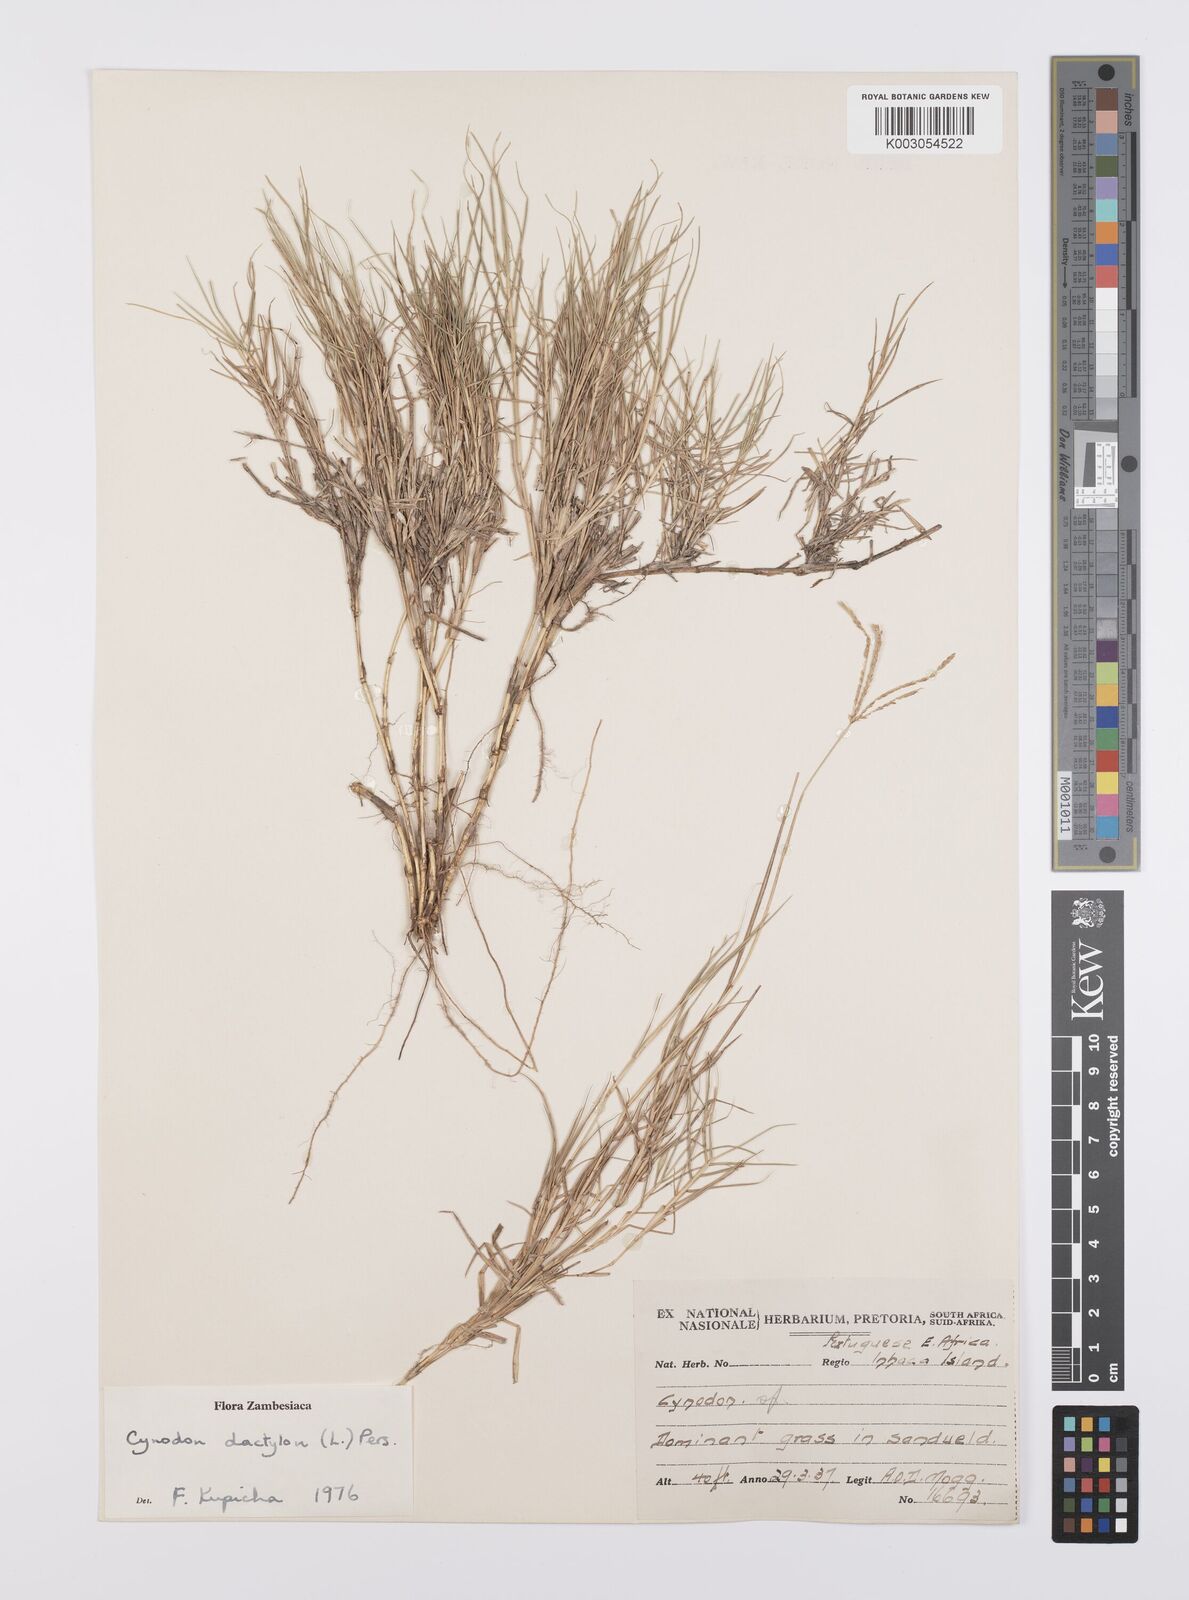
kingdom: Plantae
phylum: Tracheophyta
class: Liliopsida
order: Poales
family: Poaceae
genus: Cynodon
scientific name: Cynodon dactylon
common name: Bermuda grass
